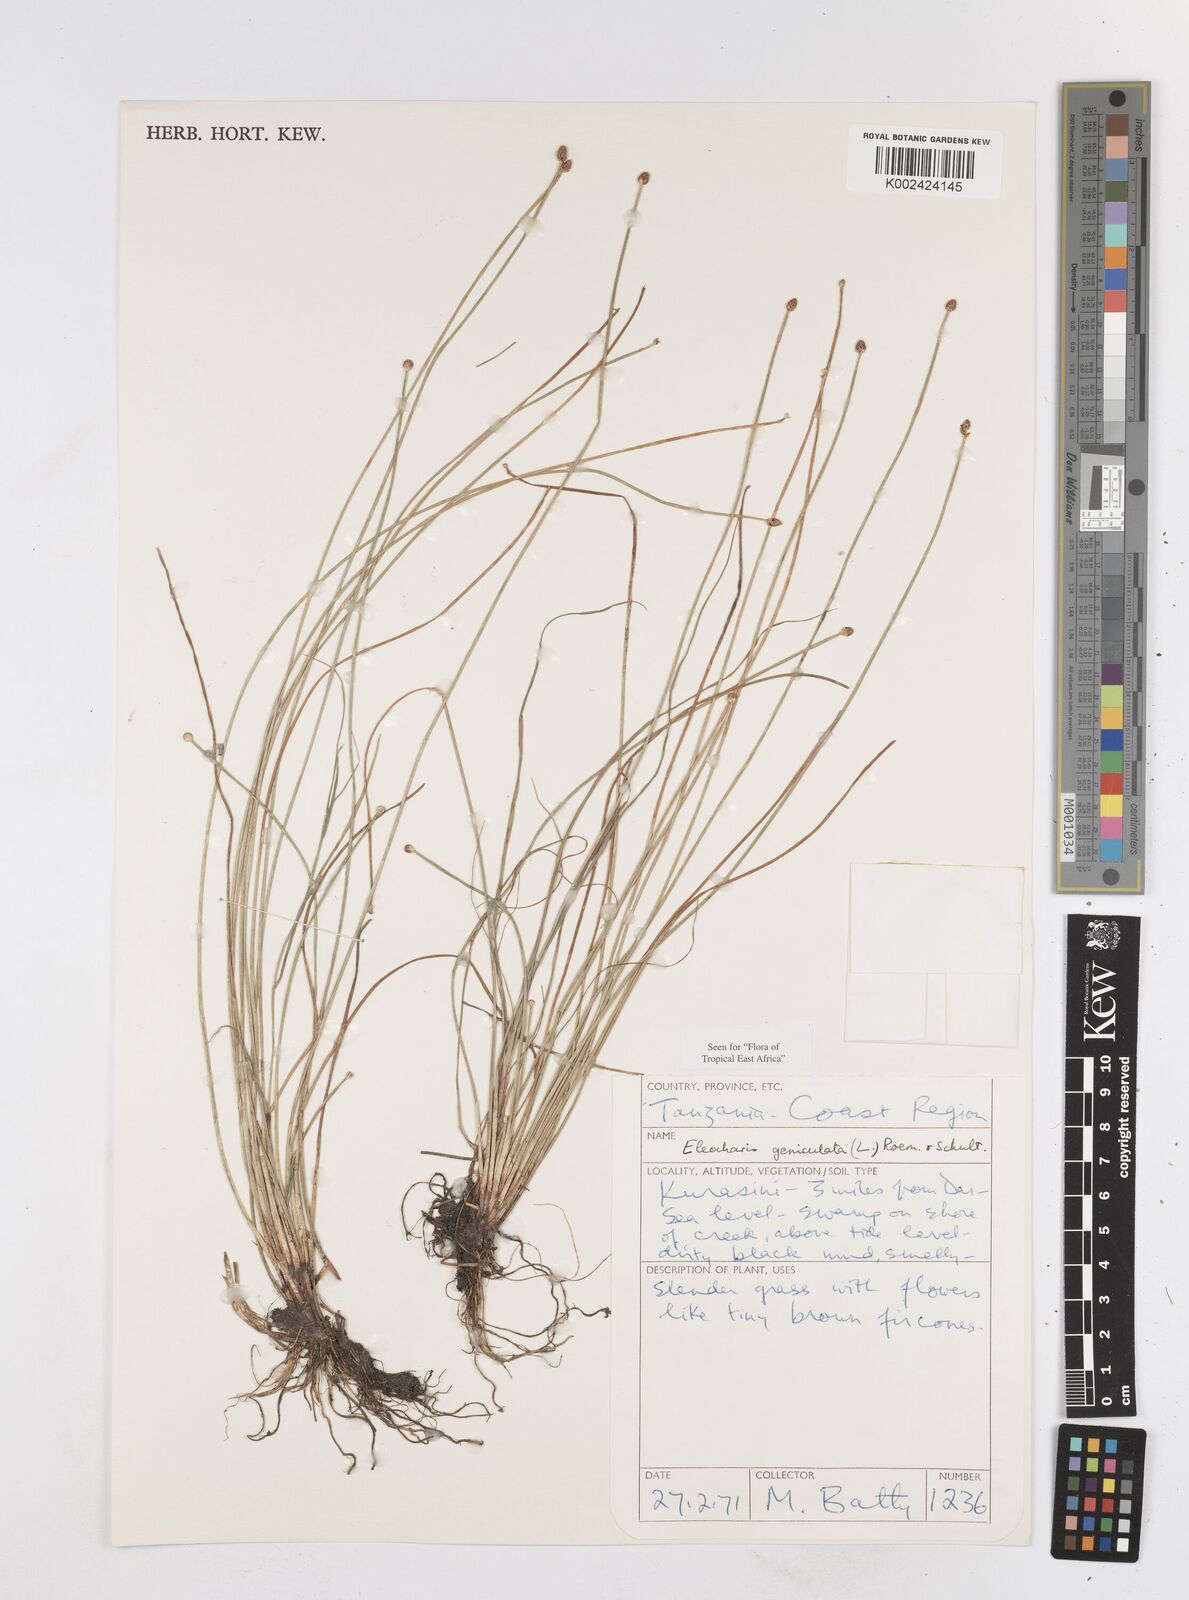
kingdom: Plantae
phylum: Tracheophyta
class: Liliopsida
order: Poales
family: Cyperaceae
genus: Eleocharis
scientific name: Eleocharis geniculata
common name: Canada spikesedge
